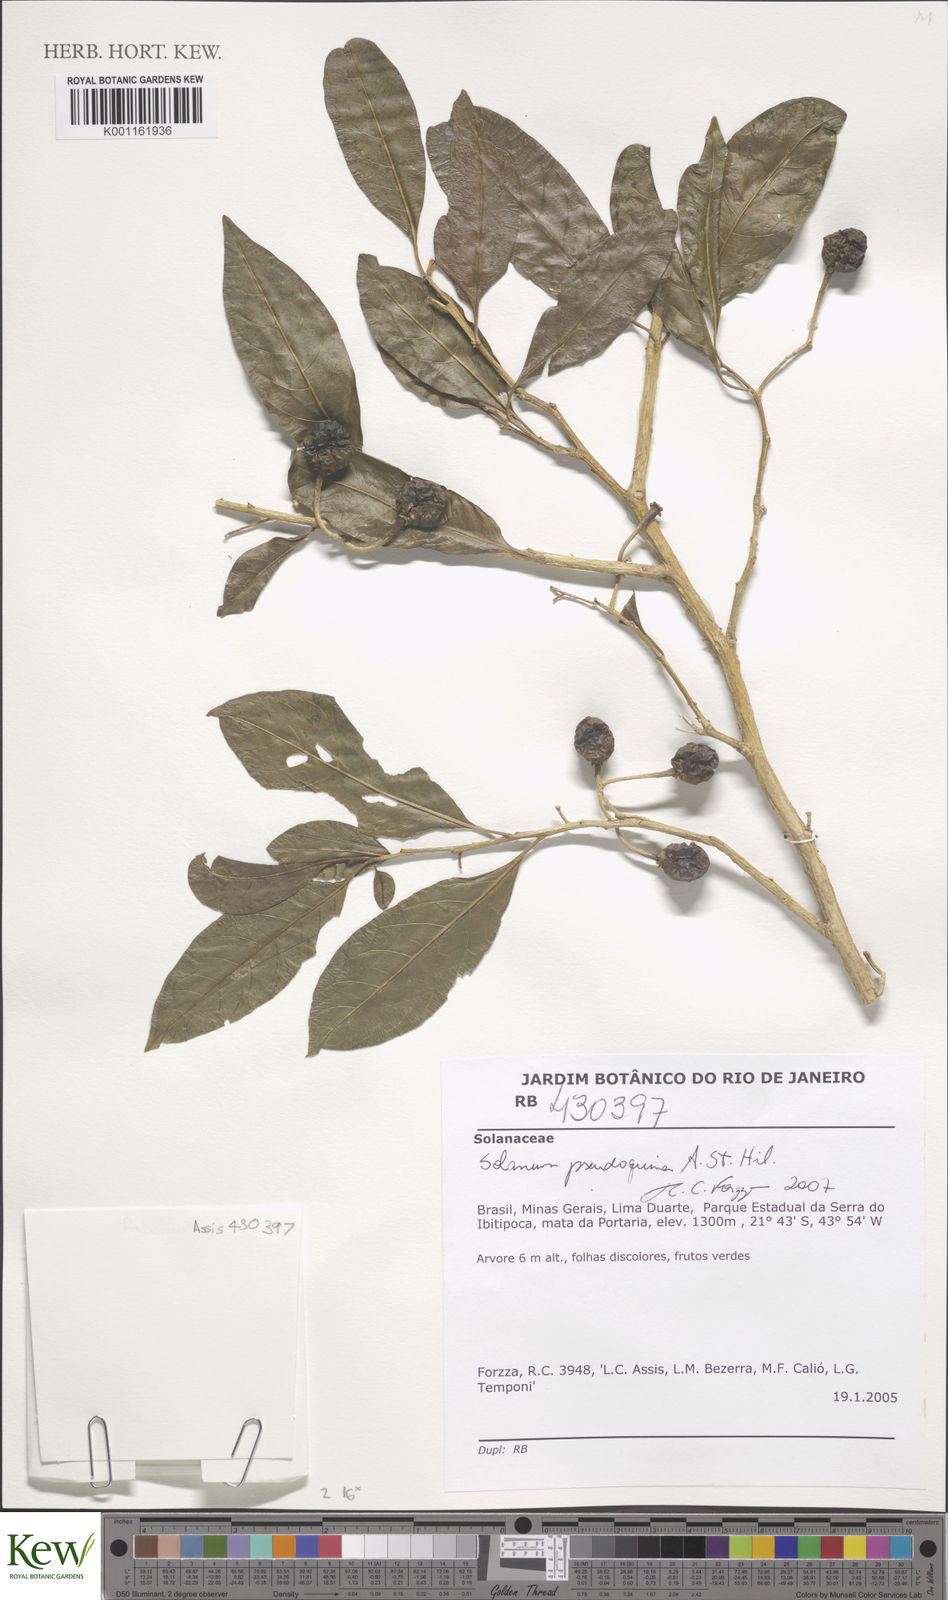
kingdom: Plantae
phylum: Tracheophyta
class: Magnoliopsida
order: Solanales
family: Solanaceae
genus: Solanum
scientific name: Solanum pseudoquina
